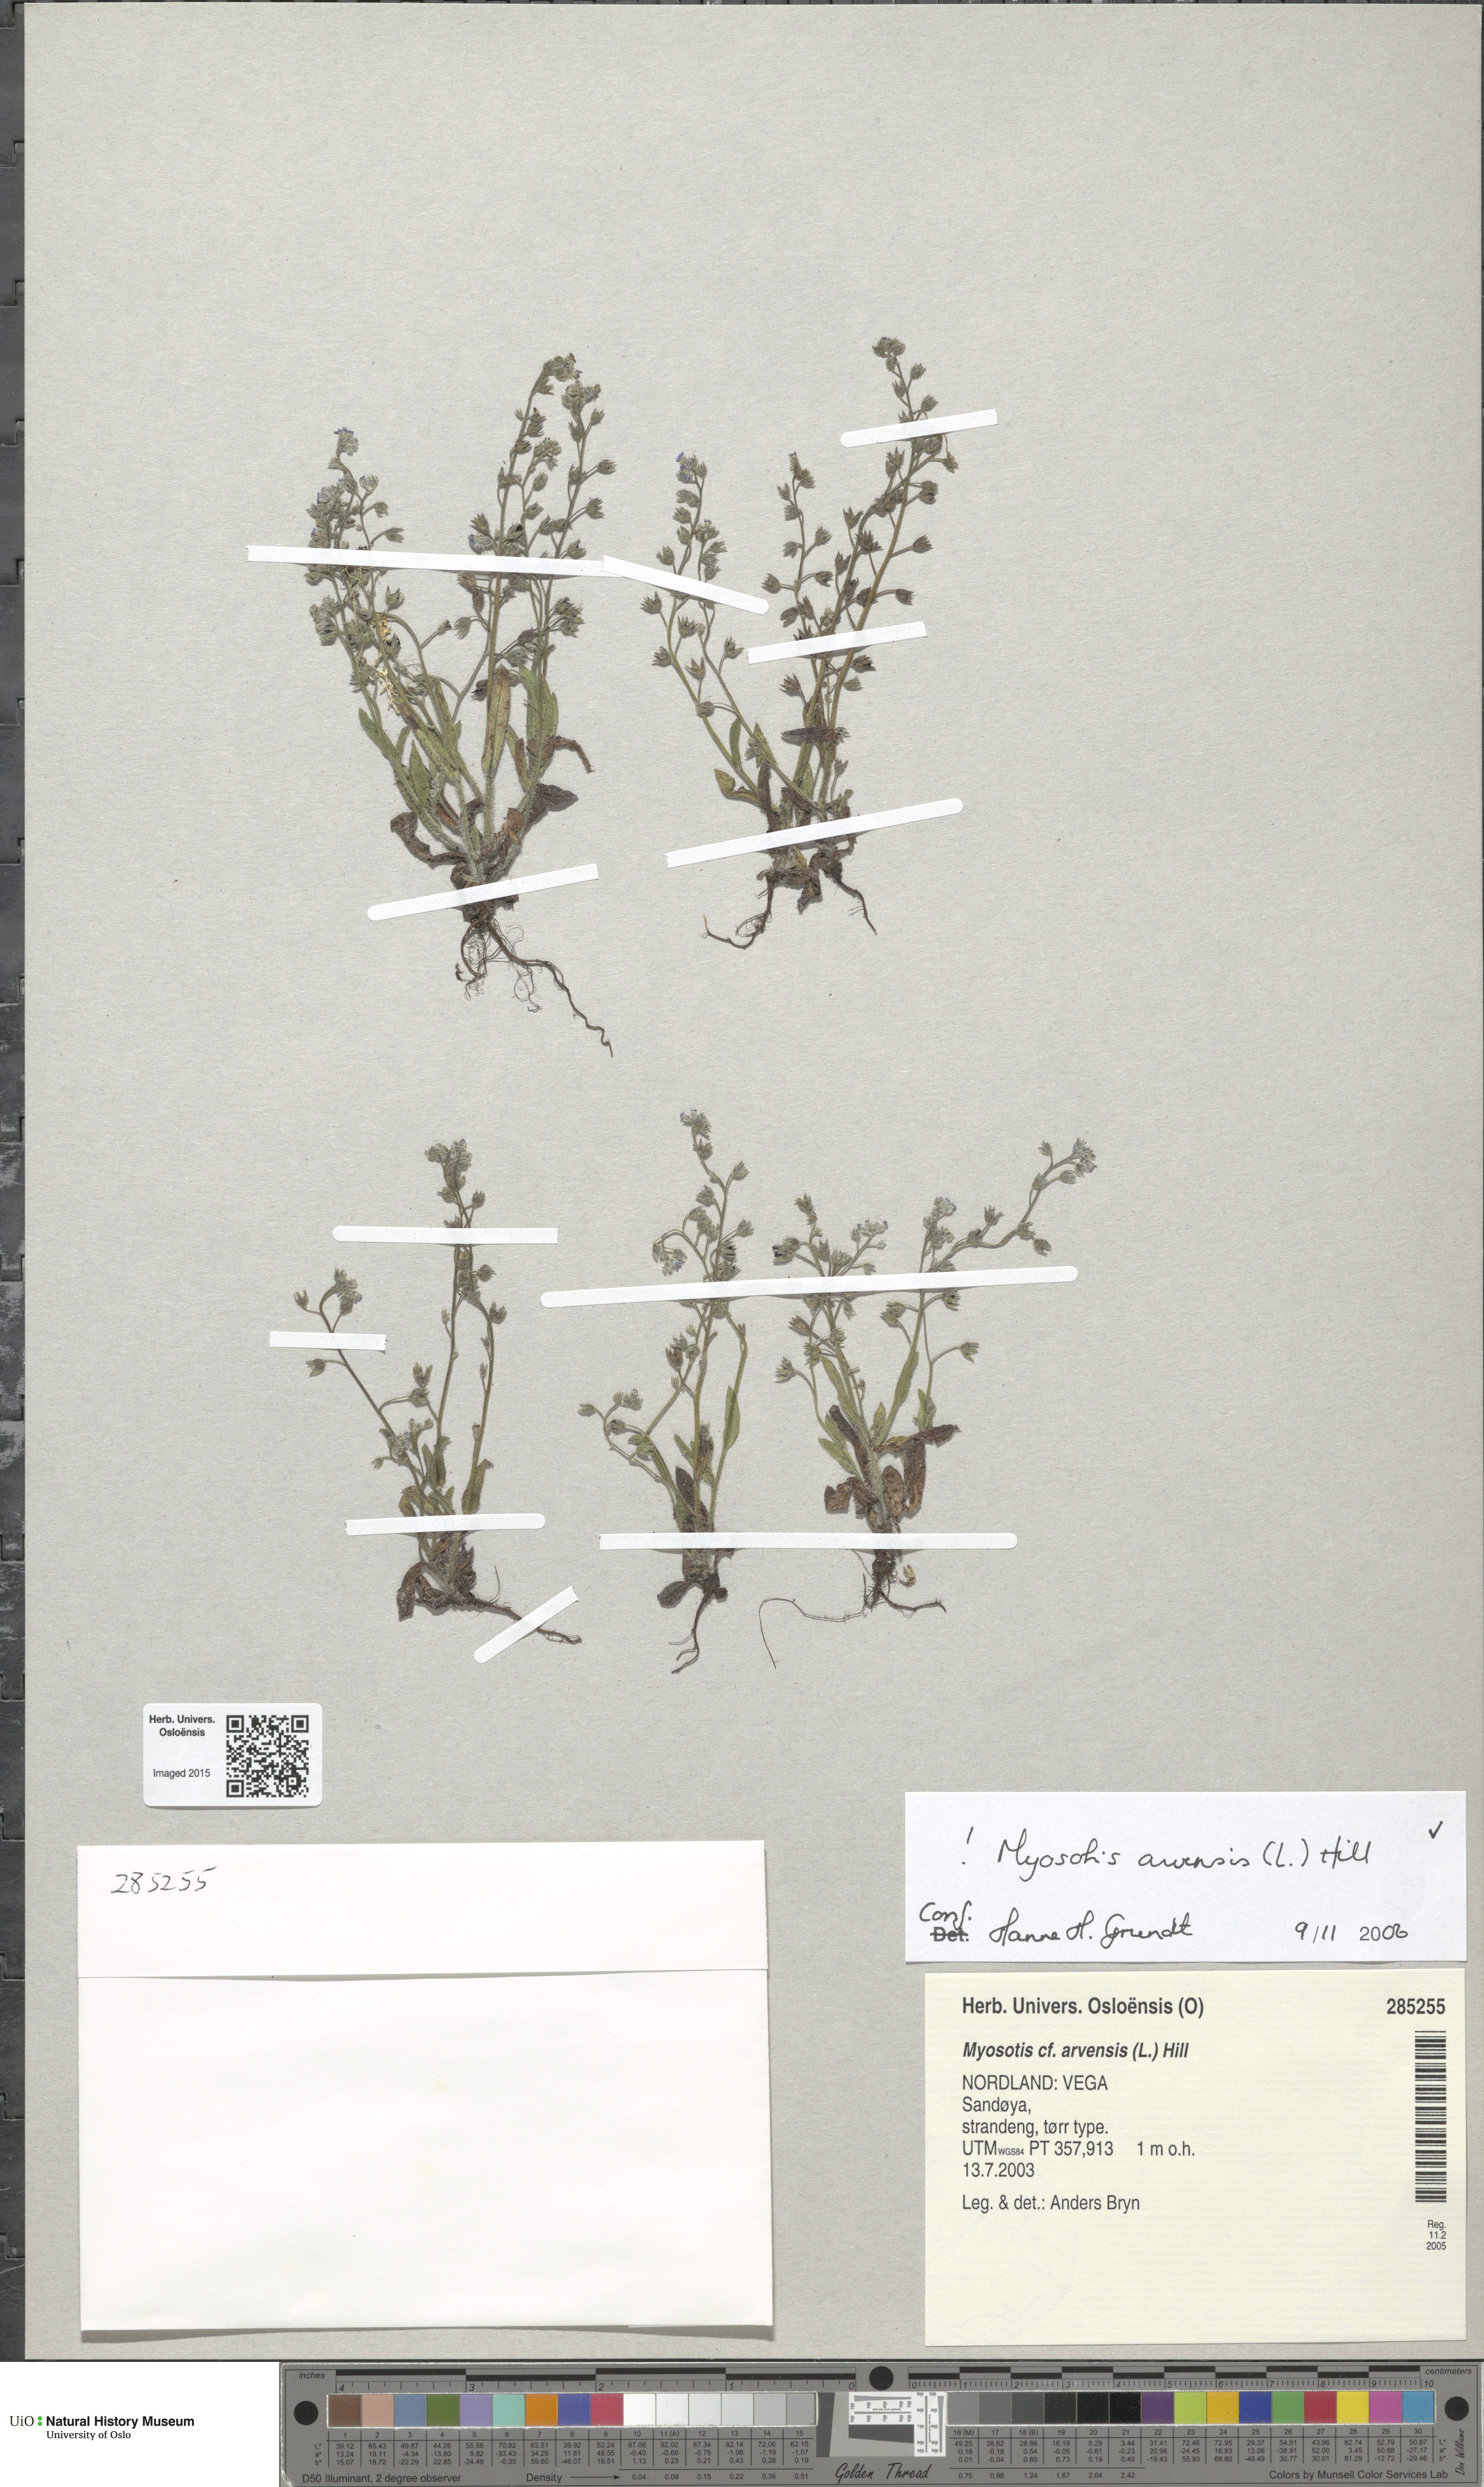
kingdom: Plantae
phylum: Tracheophyta
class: Magnoliopsida
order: Boraginales
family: Boraginaceae
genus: Myosotis
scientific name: Myosotis arvensis
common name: Field forget-me-not
